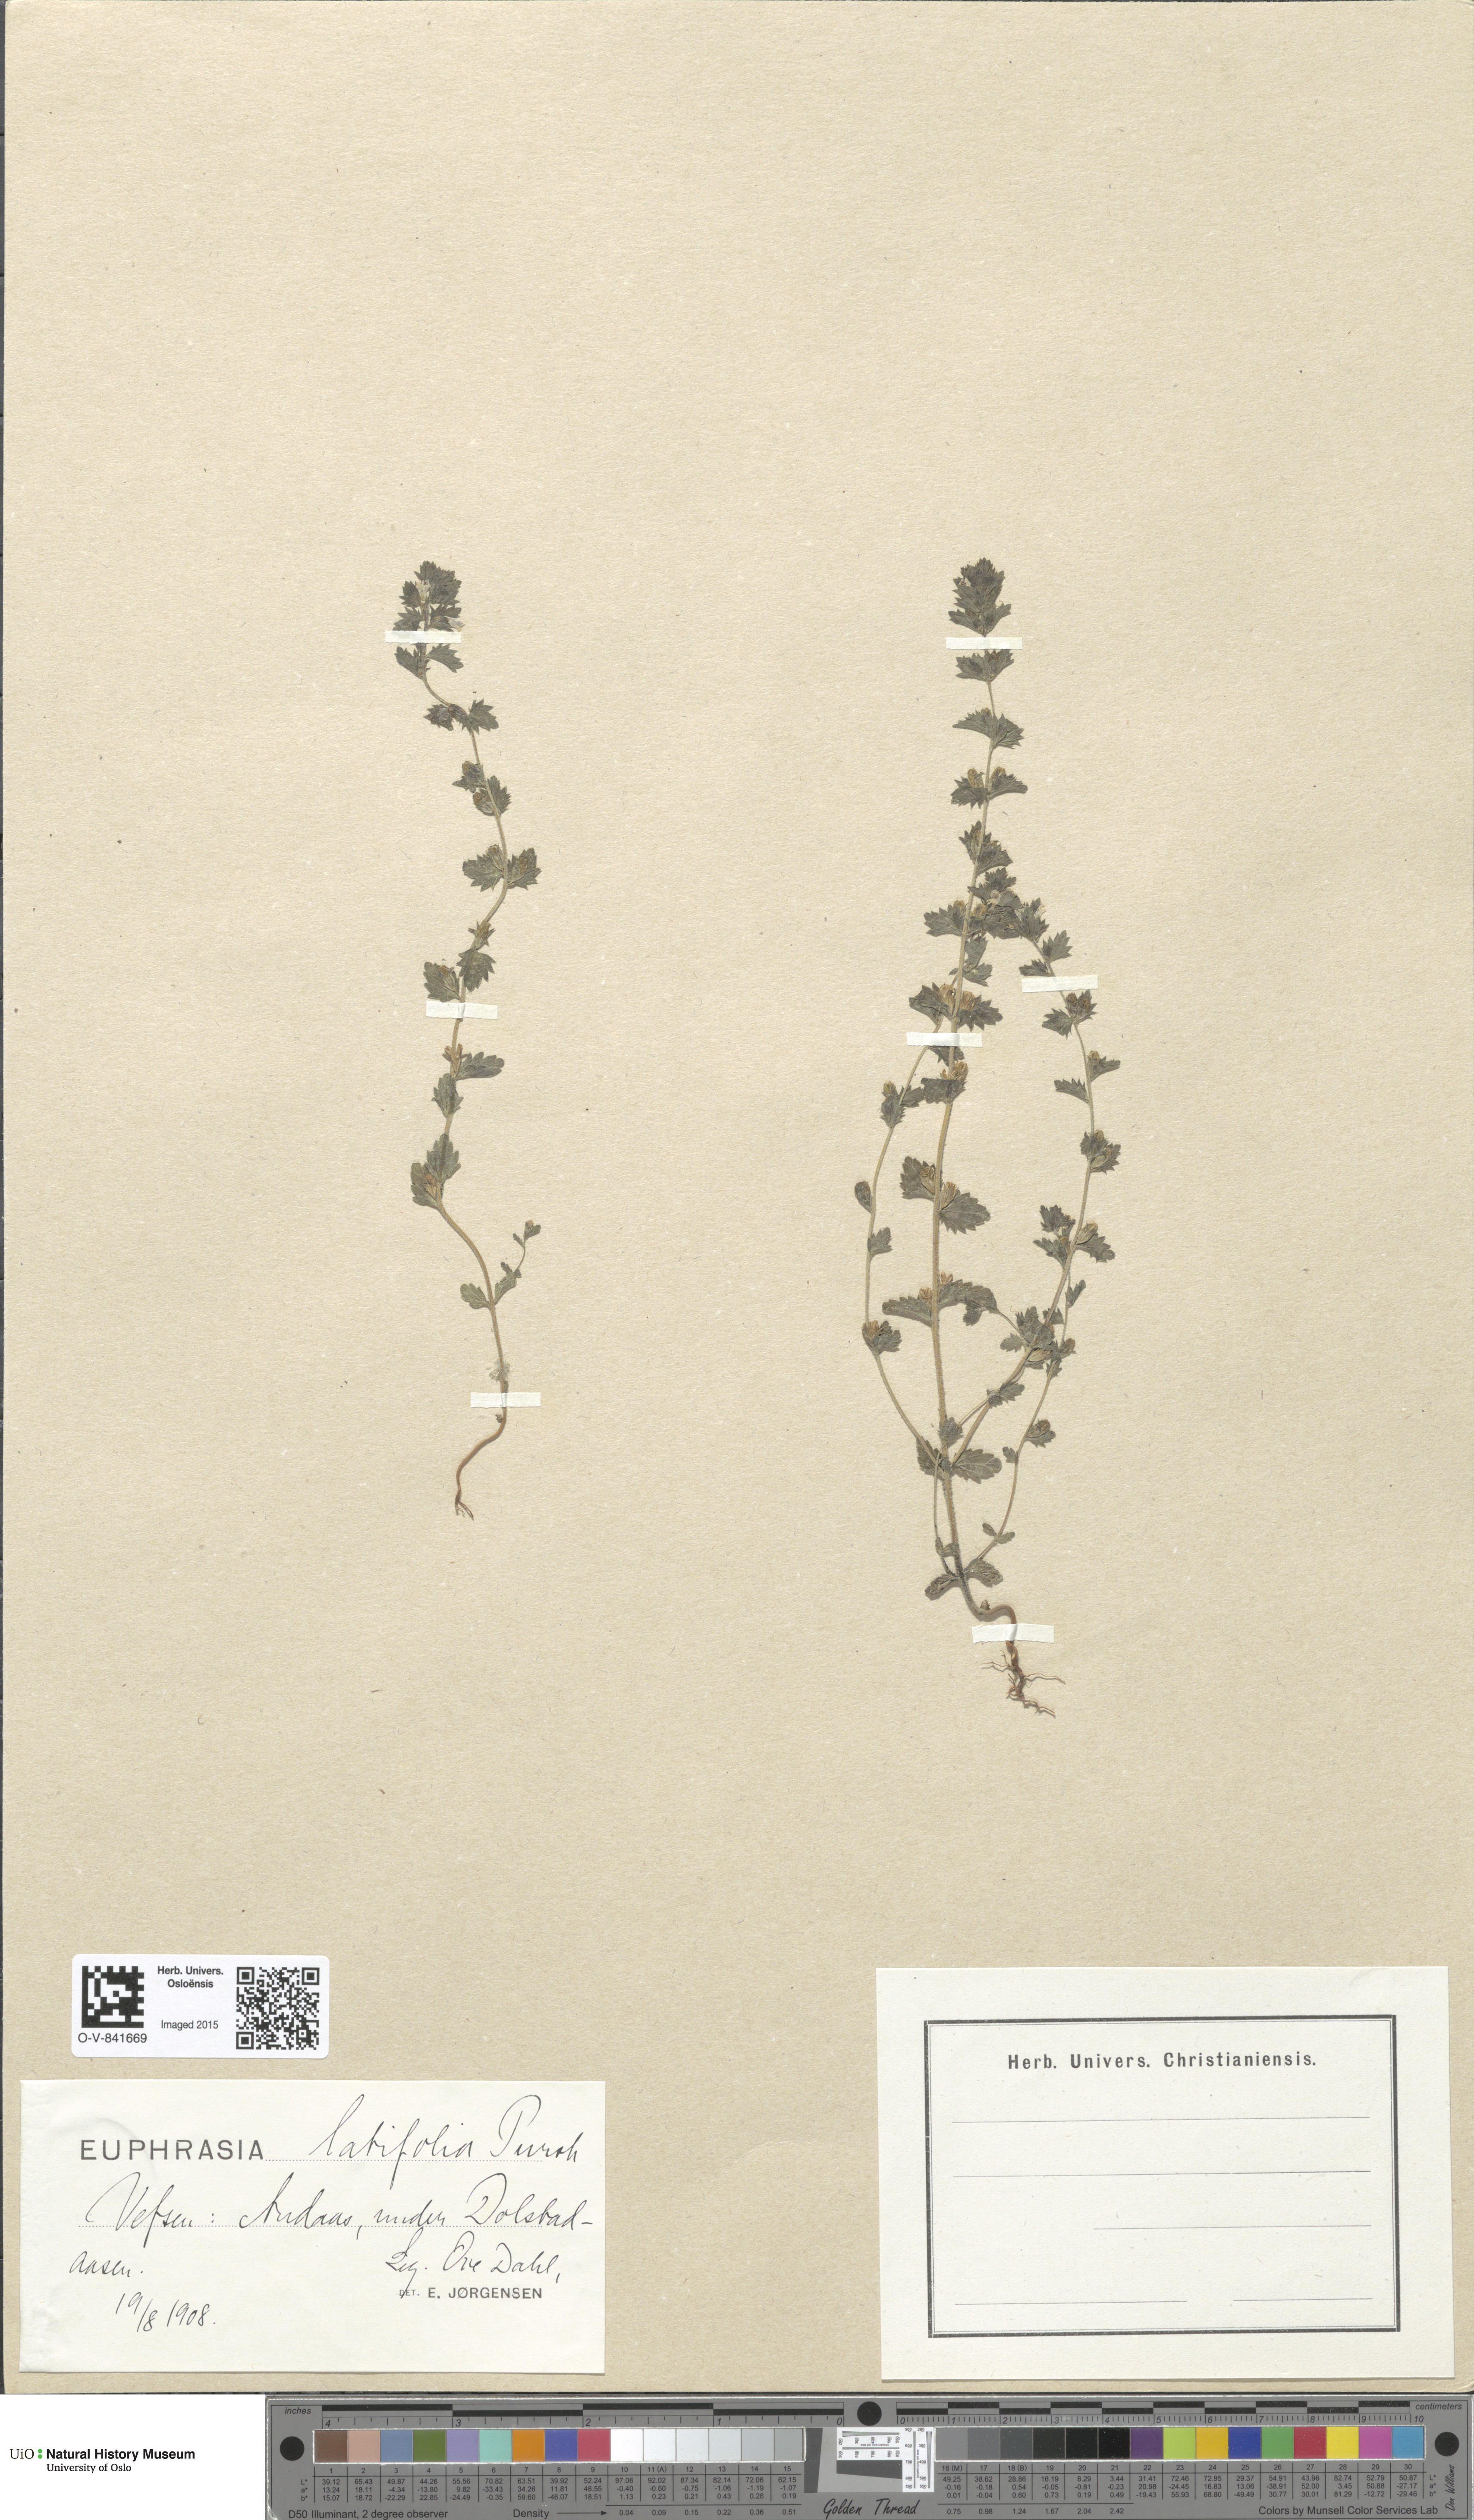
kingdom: Plantae
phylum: Tracheophyta
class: Magnoliopsida
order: Lamiales
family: Orobanchaceae
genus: Euphrasia
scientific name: Euphrasia wettsteinii
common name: Wettstein's eyebright
